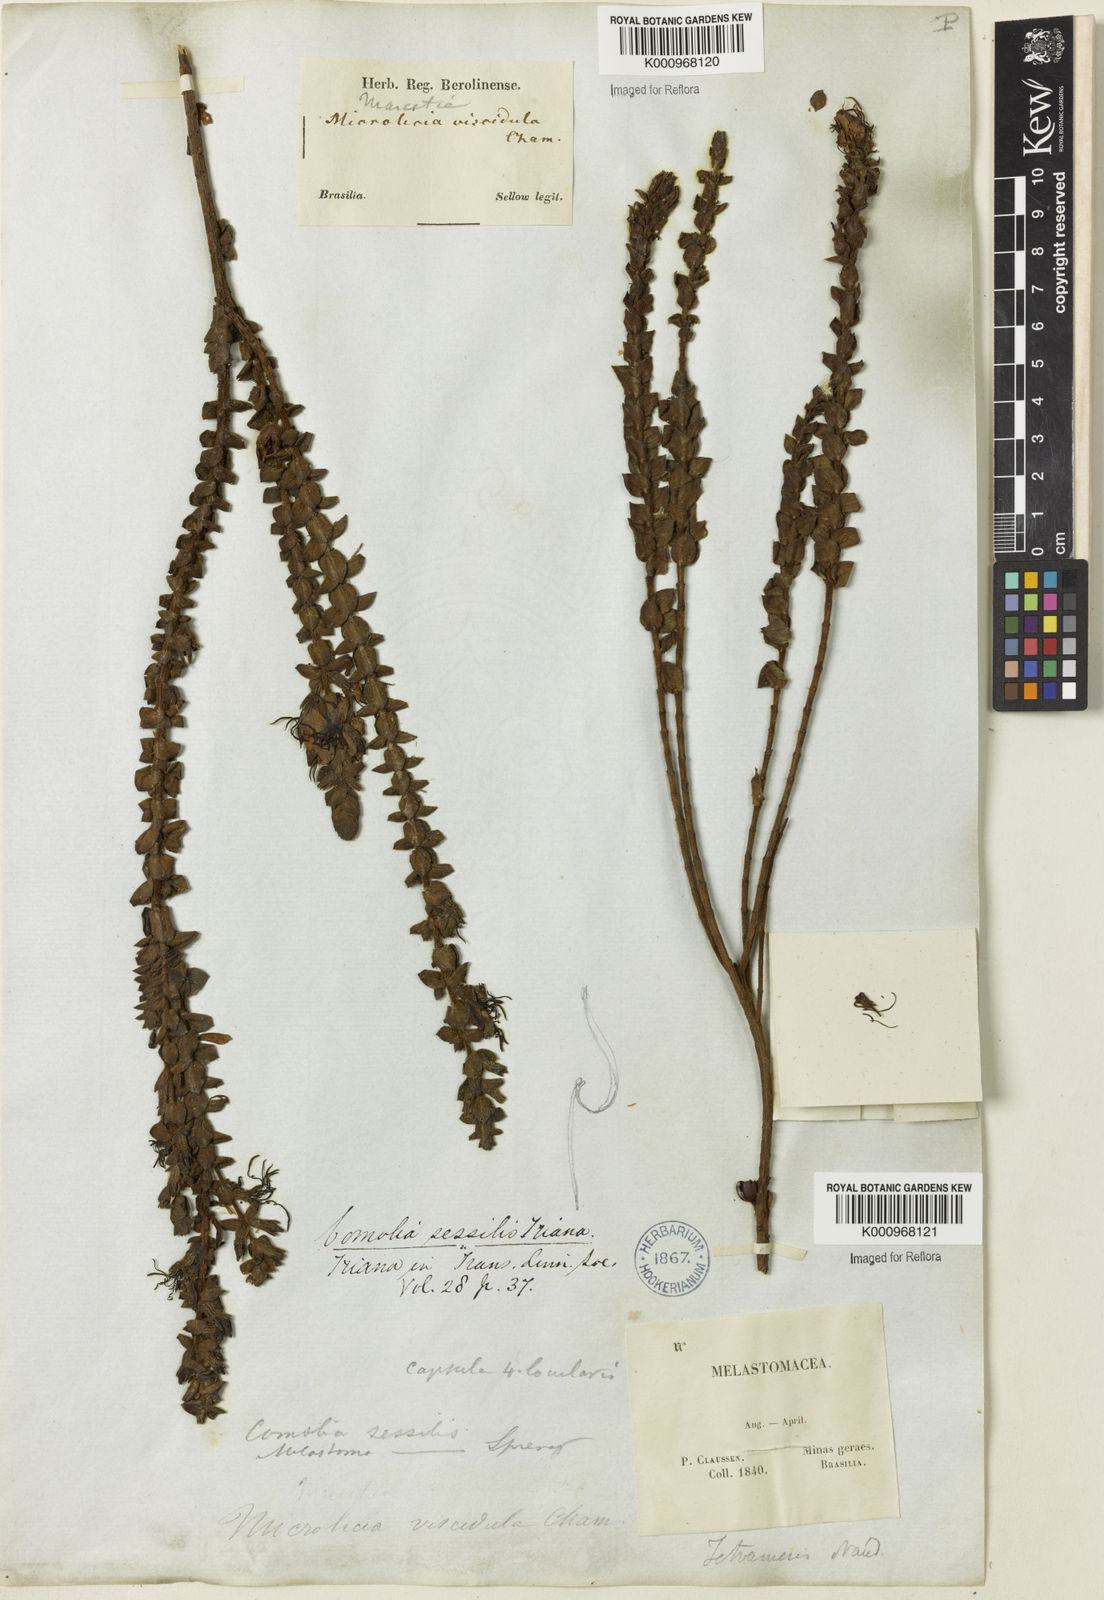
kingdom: Plantae
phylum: Tracheophyta
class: Magnoliopsida
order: Myrtales
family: Melastomataceae
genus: Fritzschia
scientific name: Fritzschia sessilis
